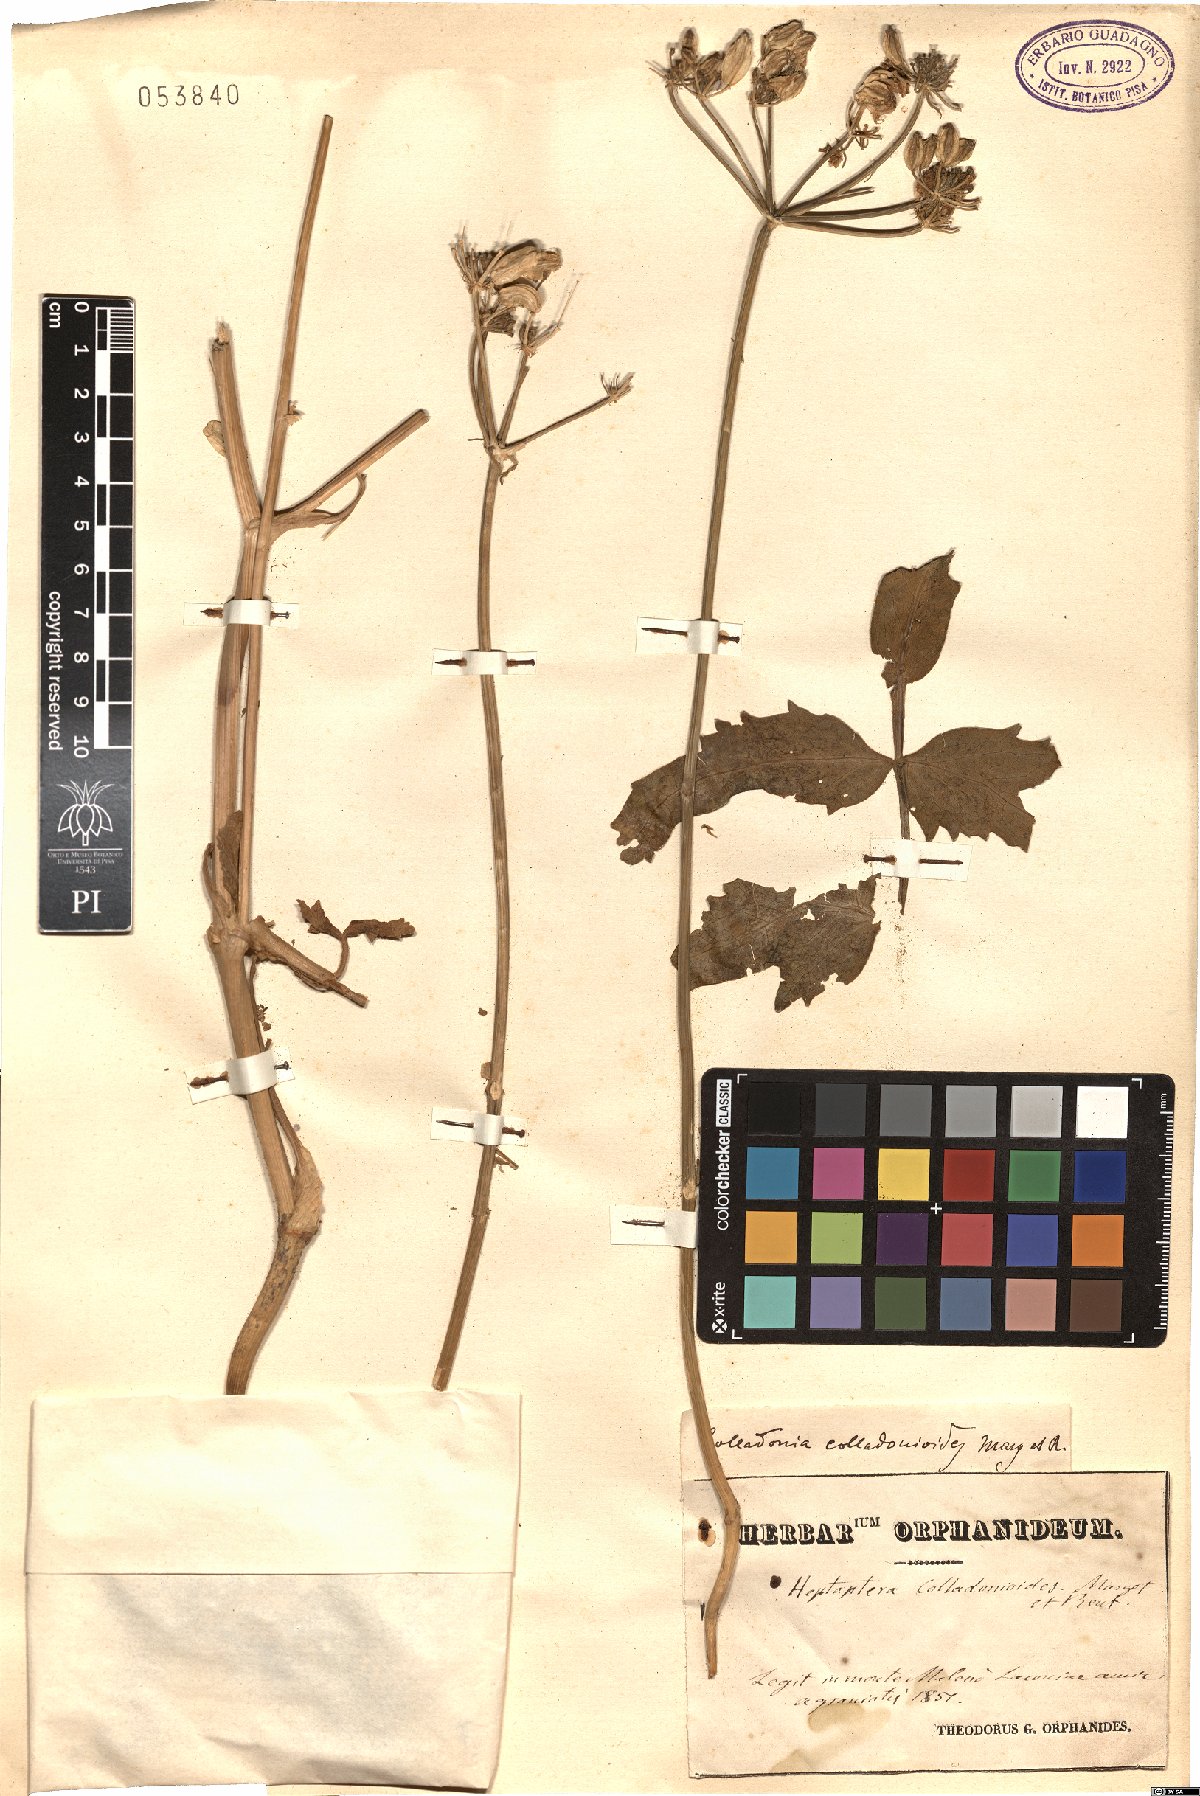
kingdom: Plantae
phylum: Tracheophyta
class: Magnoliopsida
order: Apiales
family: Apiaceae
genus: Heptaptera
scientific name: Heptaptera colladonioides
